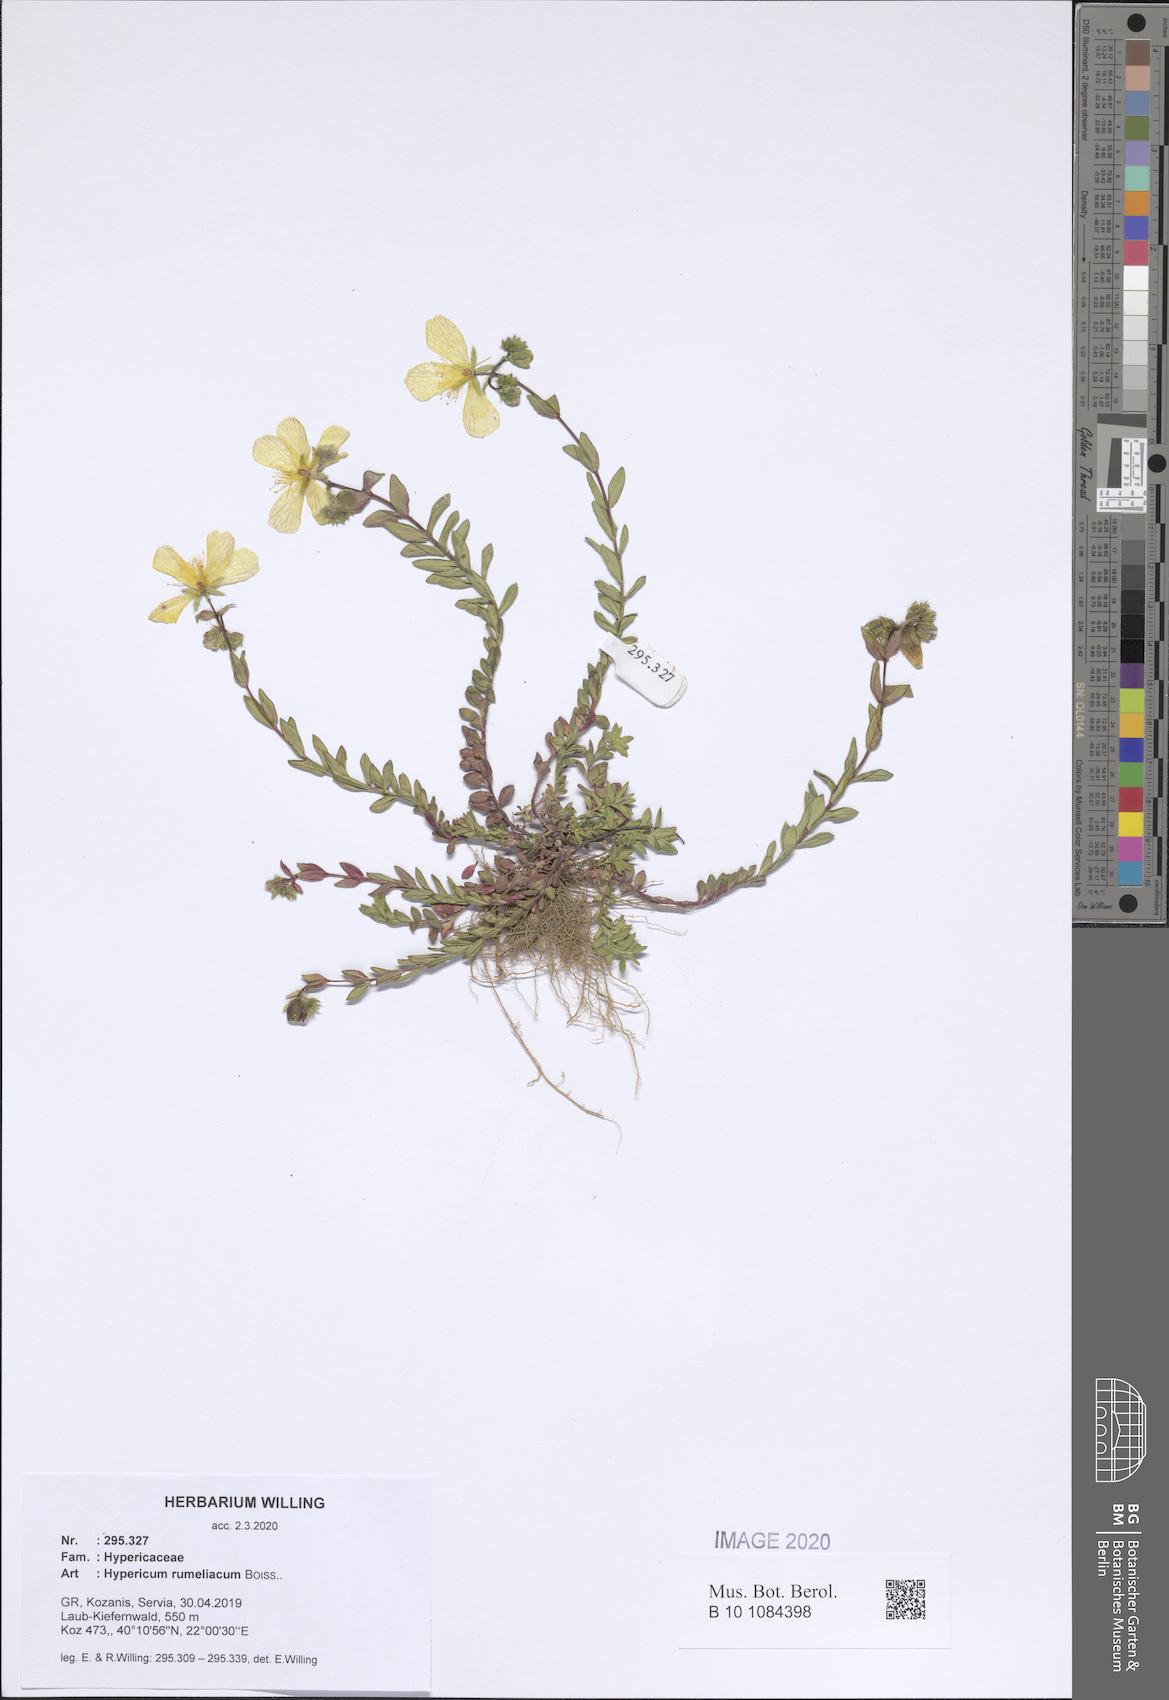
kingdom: Plantae
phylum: Tracheophyta
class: Magnoliopsida
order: Malpighiales
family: Hypericaceae
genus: Hypericum
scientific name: Hypericum rumeliacum
